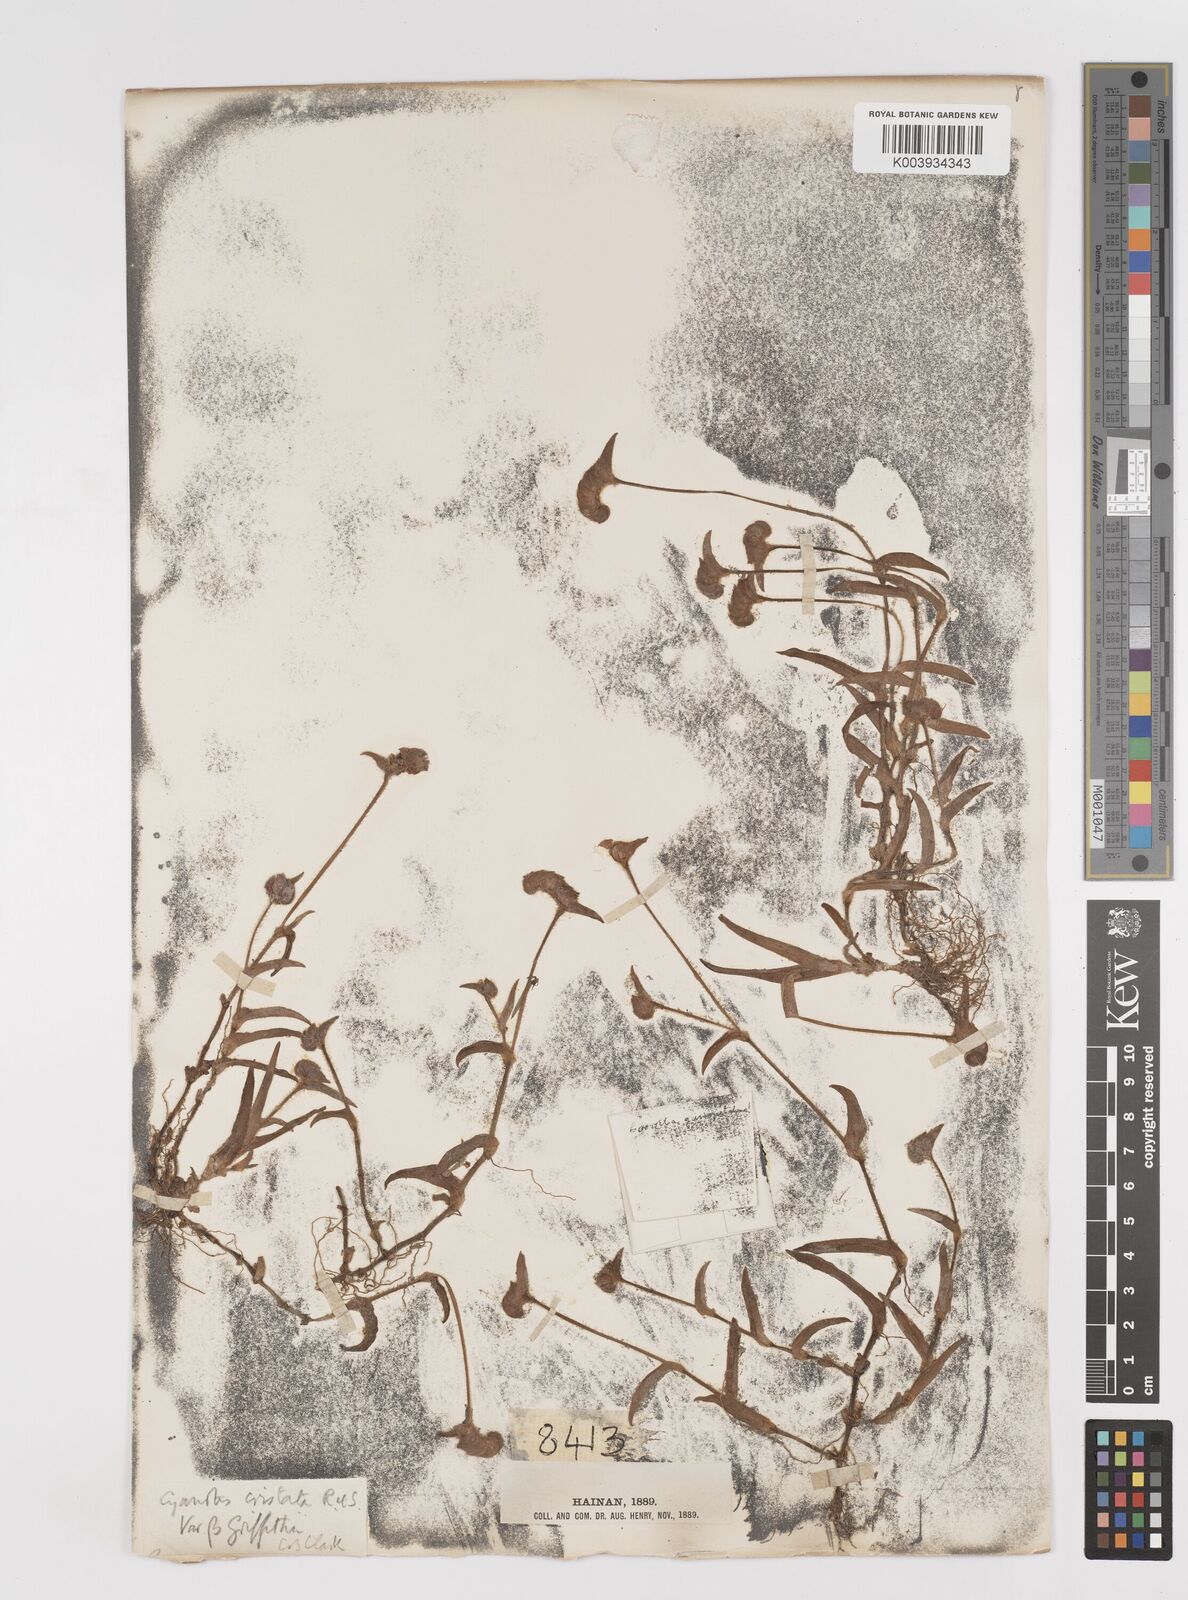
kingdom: Plantae
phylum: Tracheophyta
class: Liliopsida
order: Commelinales
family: Commelinaceae
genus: Cyanotis
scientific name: Cyanotis cristata
